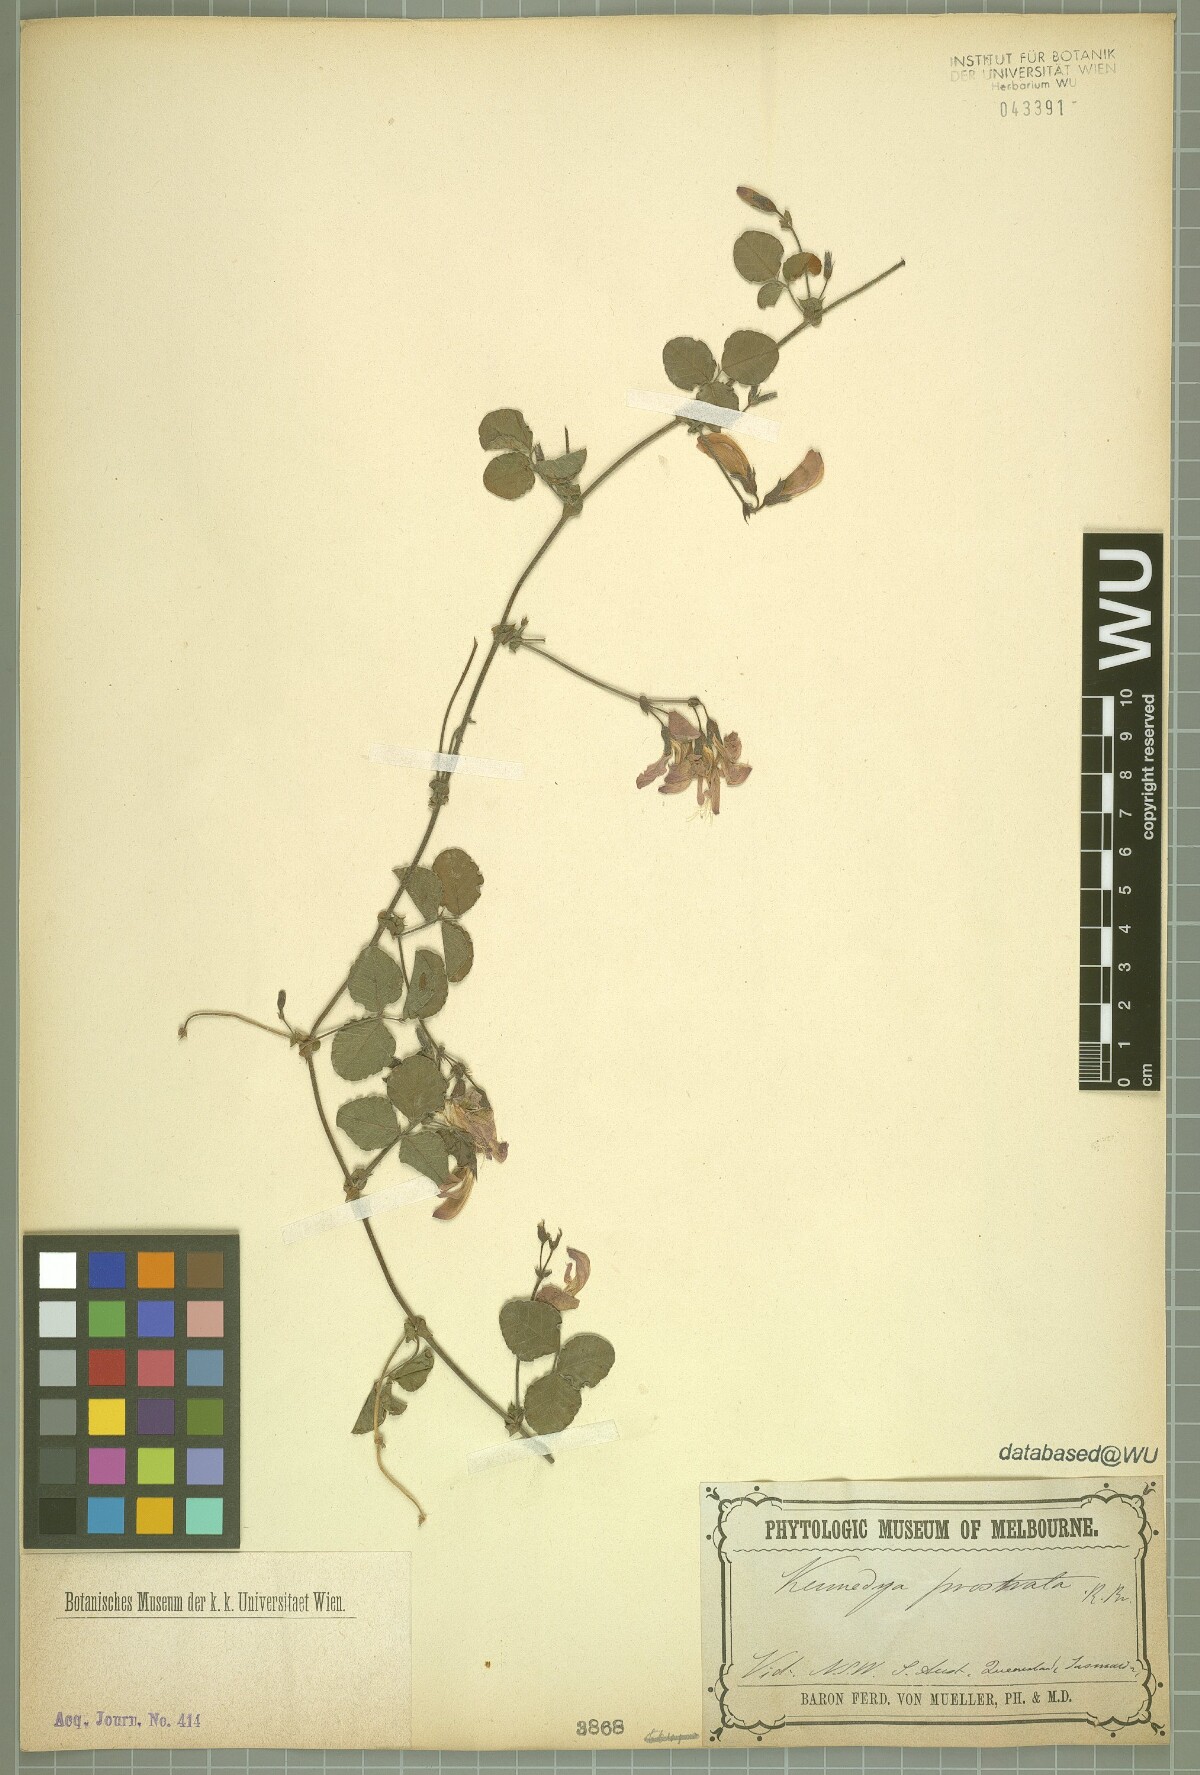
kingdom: Plantae
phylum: Tracheophyta
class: Magnoliopsida
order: Fabales
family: Fabaceae
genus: Kennedia
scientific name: Kennedia prostrata
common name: Running-postman
